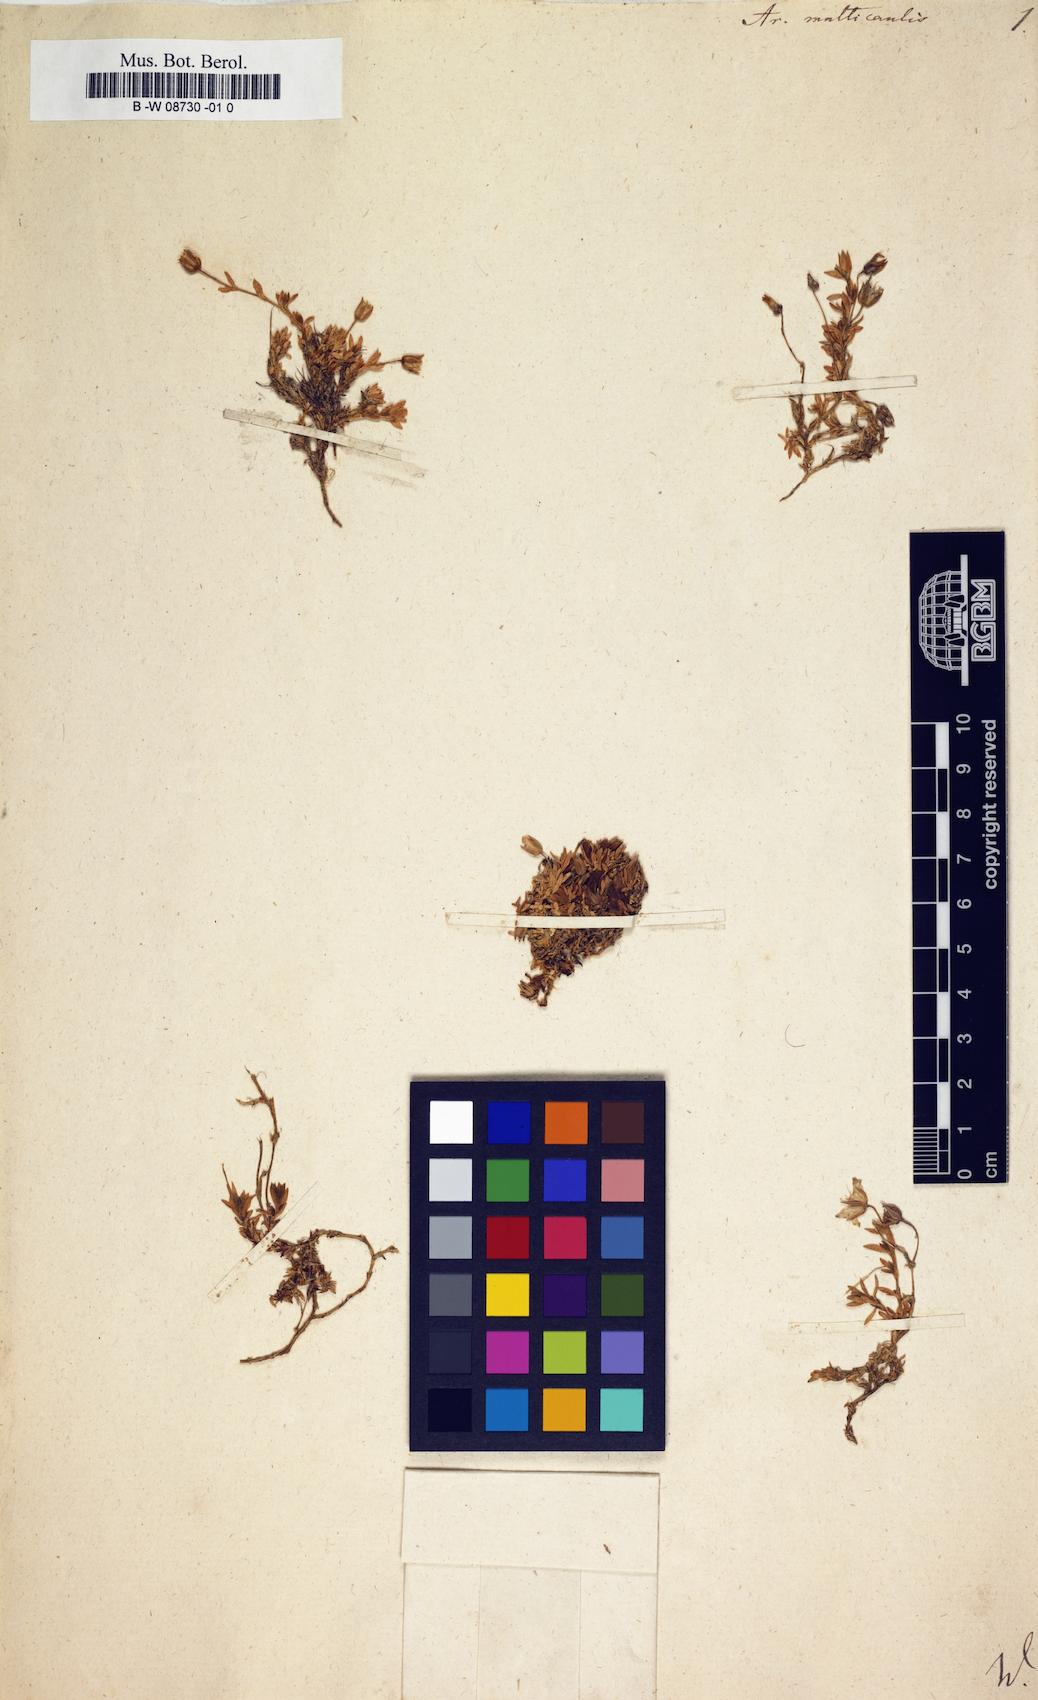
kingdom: Plantae
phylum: Tracheophyta
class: Magnoliopsida
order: Caryophyllales
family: Caryophyllaceae
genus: Arenaria
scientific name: Arenaria ciliata
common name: Fringed sandwort
